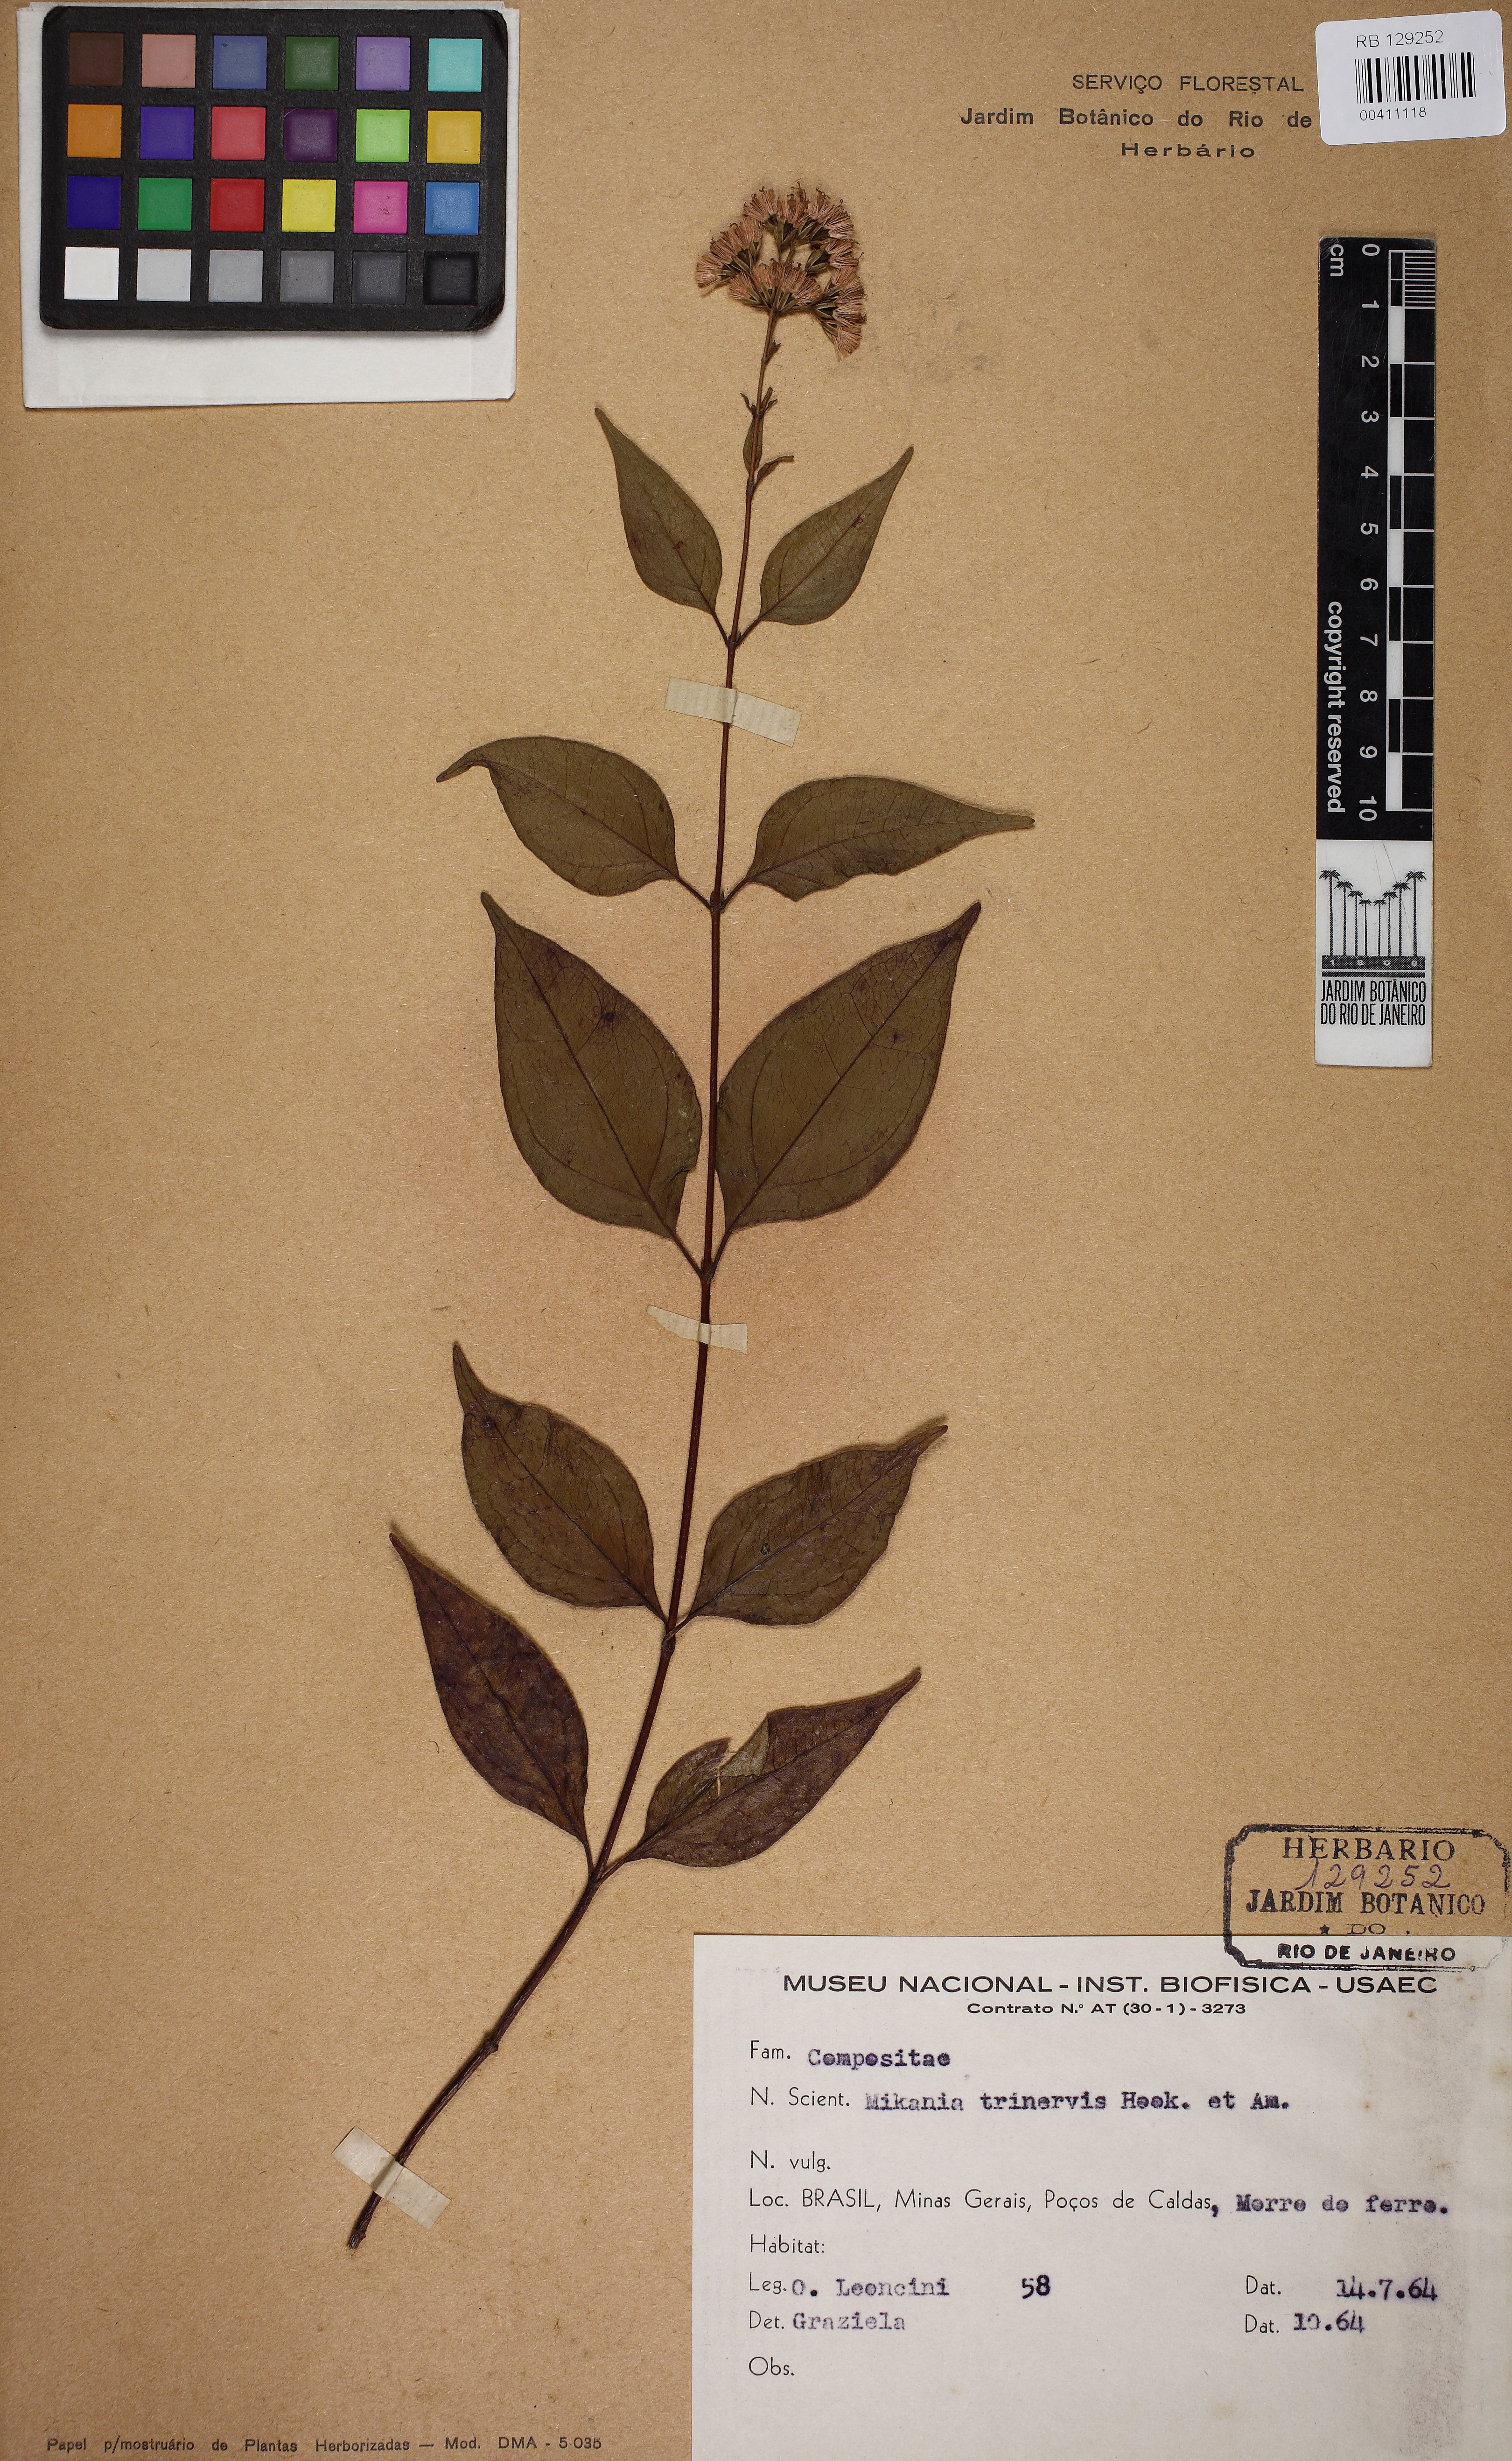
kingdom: Plantae
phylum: Tracheophyta
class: Magnoliopsida
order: Asterales
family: Asteraceae
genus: Mikania
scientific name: Mikania trinervis
